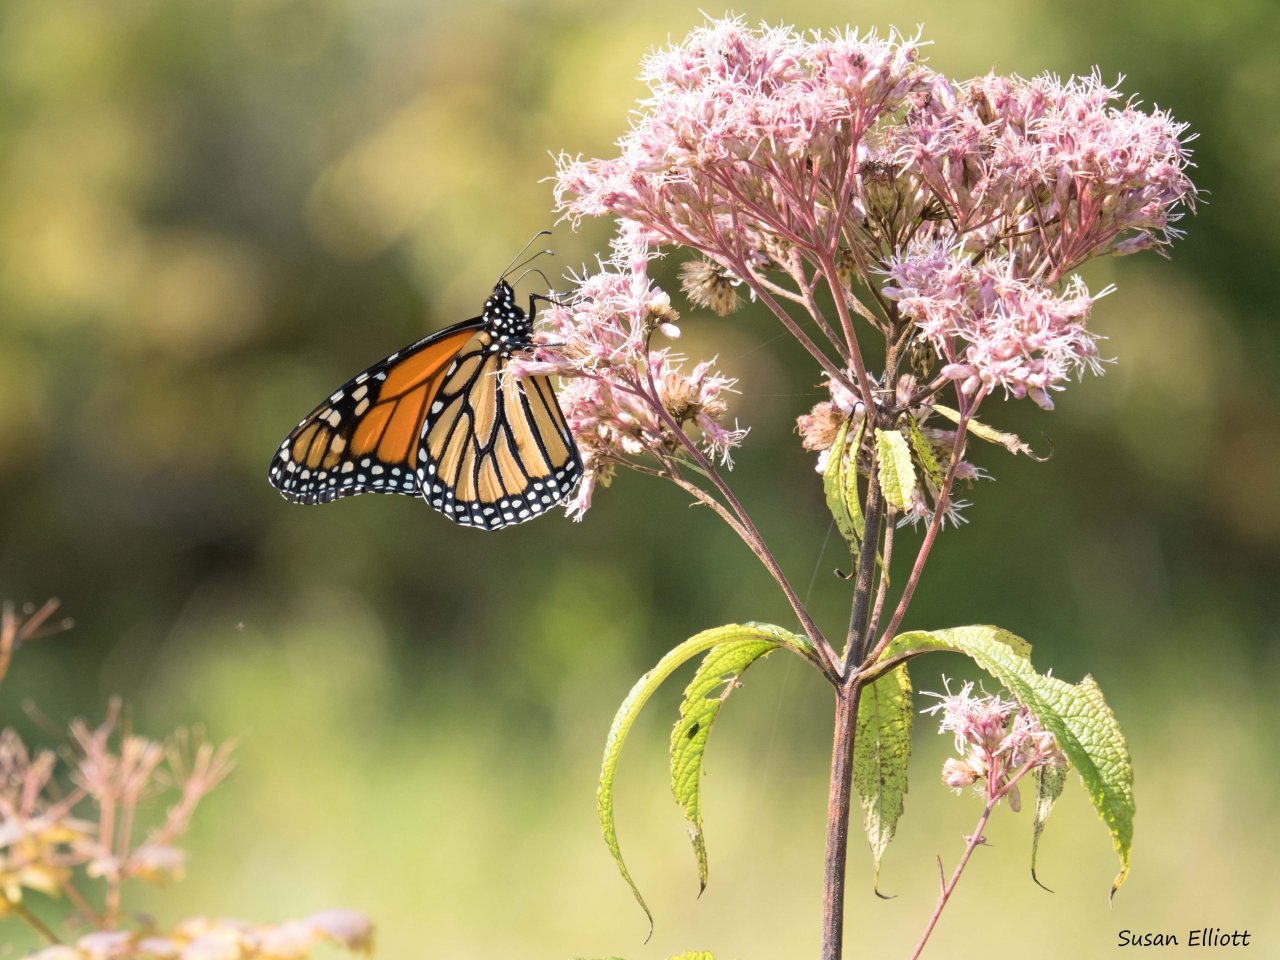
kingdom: Animalia
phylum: Arthropoda
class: Insecta
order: Lepidoptera
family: Nymphalidae
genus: Danaus
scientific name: Danaus plexippus
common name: Monarch
